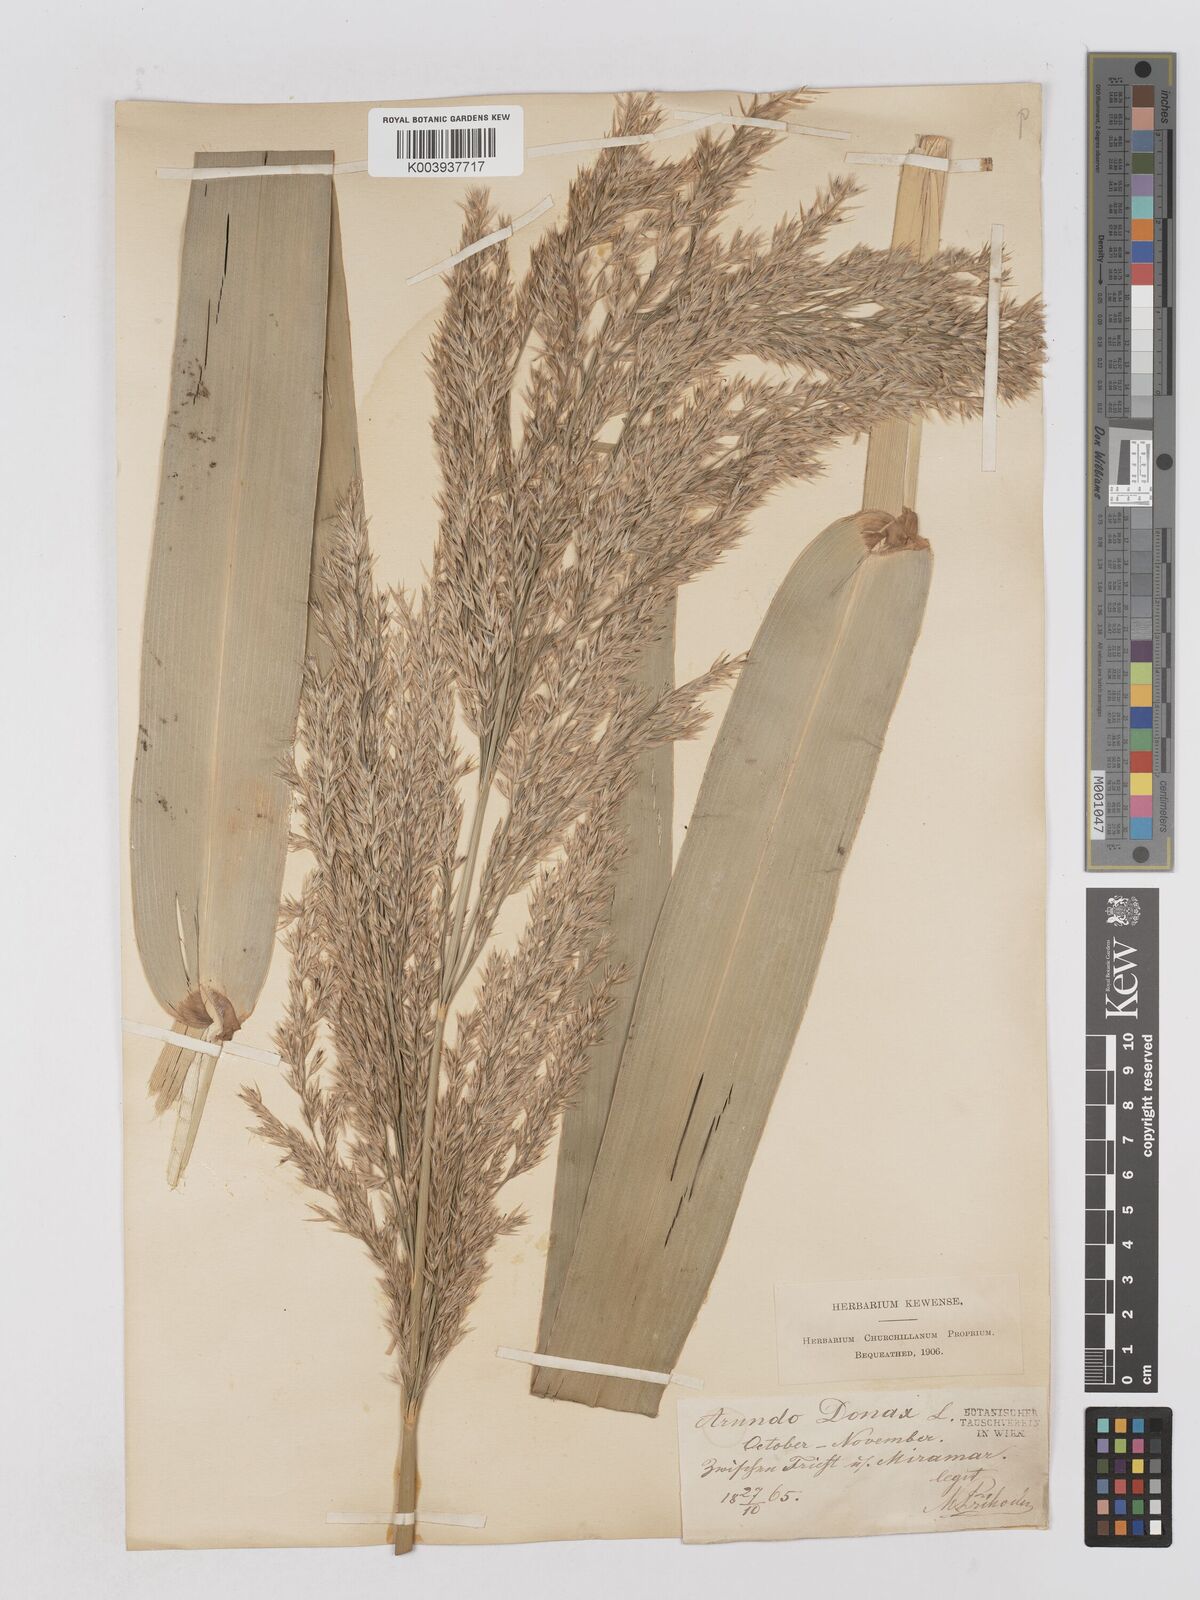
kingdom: Plantae
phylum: Tracheophyta
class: Liliopsida
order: Poales
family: Poaceae
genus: Arundo
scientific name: Arundo donax
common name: Giant reed
